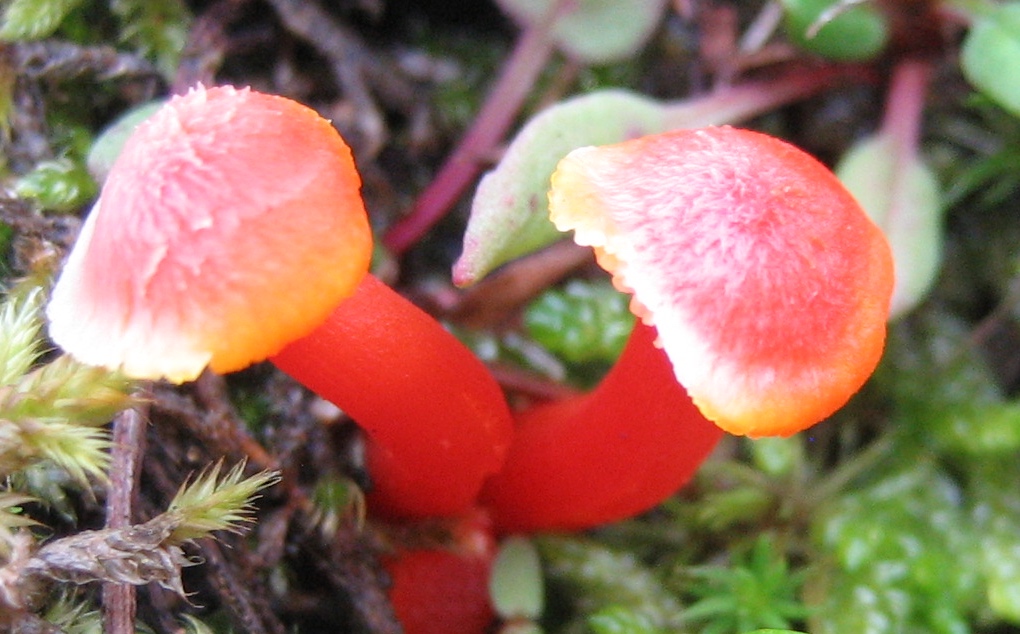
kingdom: Fungi
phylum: Basidiomycota
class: Agaricomycetes
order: Agaricales
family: Hygrophoraceae
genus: Hygrocybe
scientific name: Hygrocybe cantharellus
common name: kantarel-vokshat
